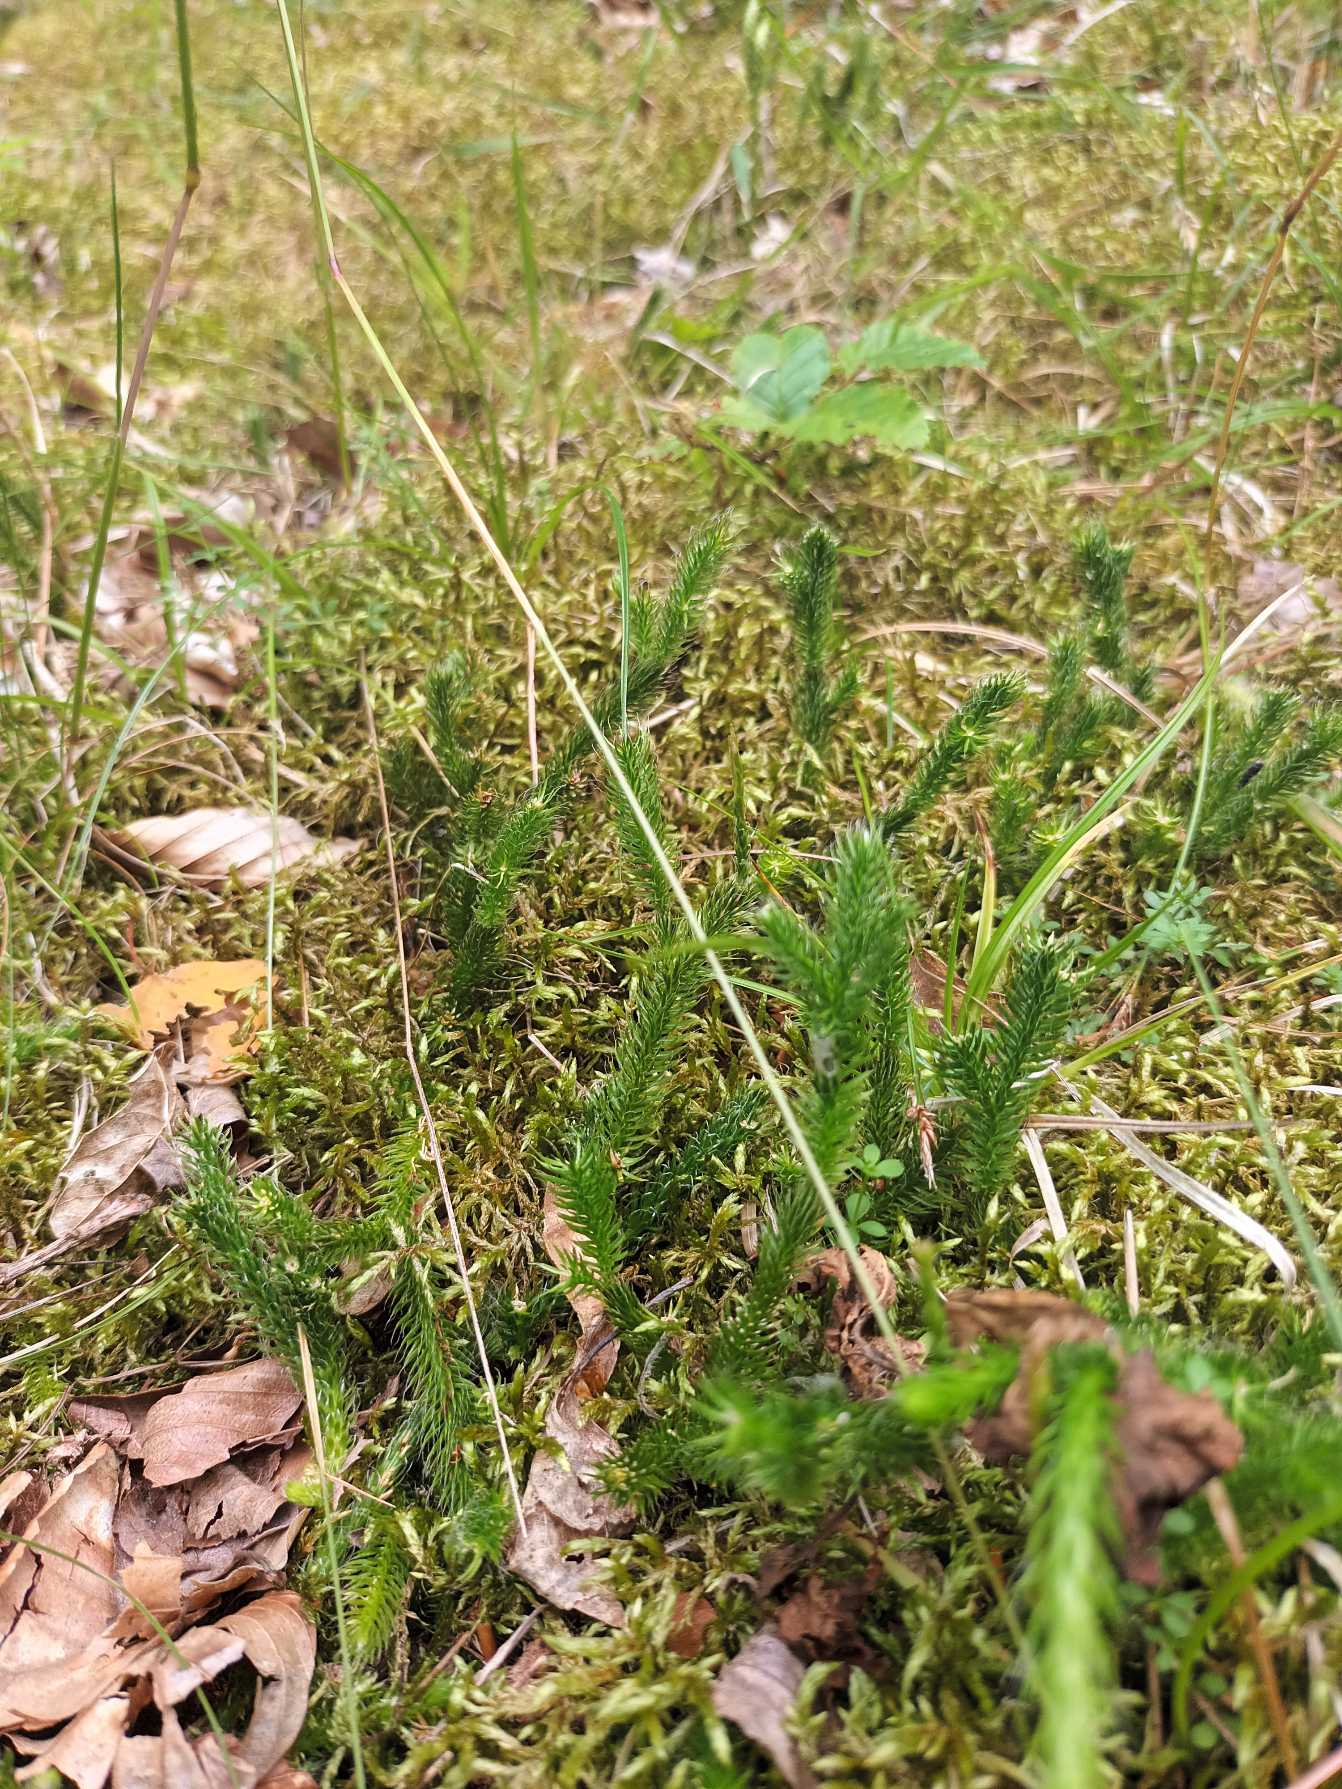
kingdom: Plantae
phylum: Tracheophyta
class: Lycopodiopsida
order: Lycopodiales
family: Lycopodiaceae
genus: Lycopodium
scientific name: Lycopodium clavatum
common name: Almindelig ulvefod
